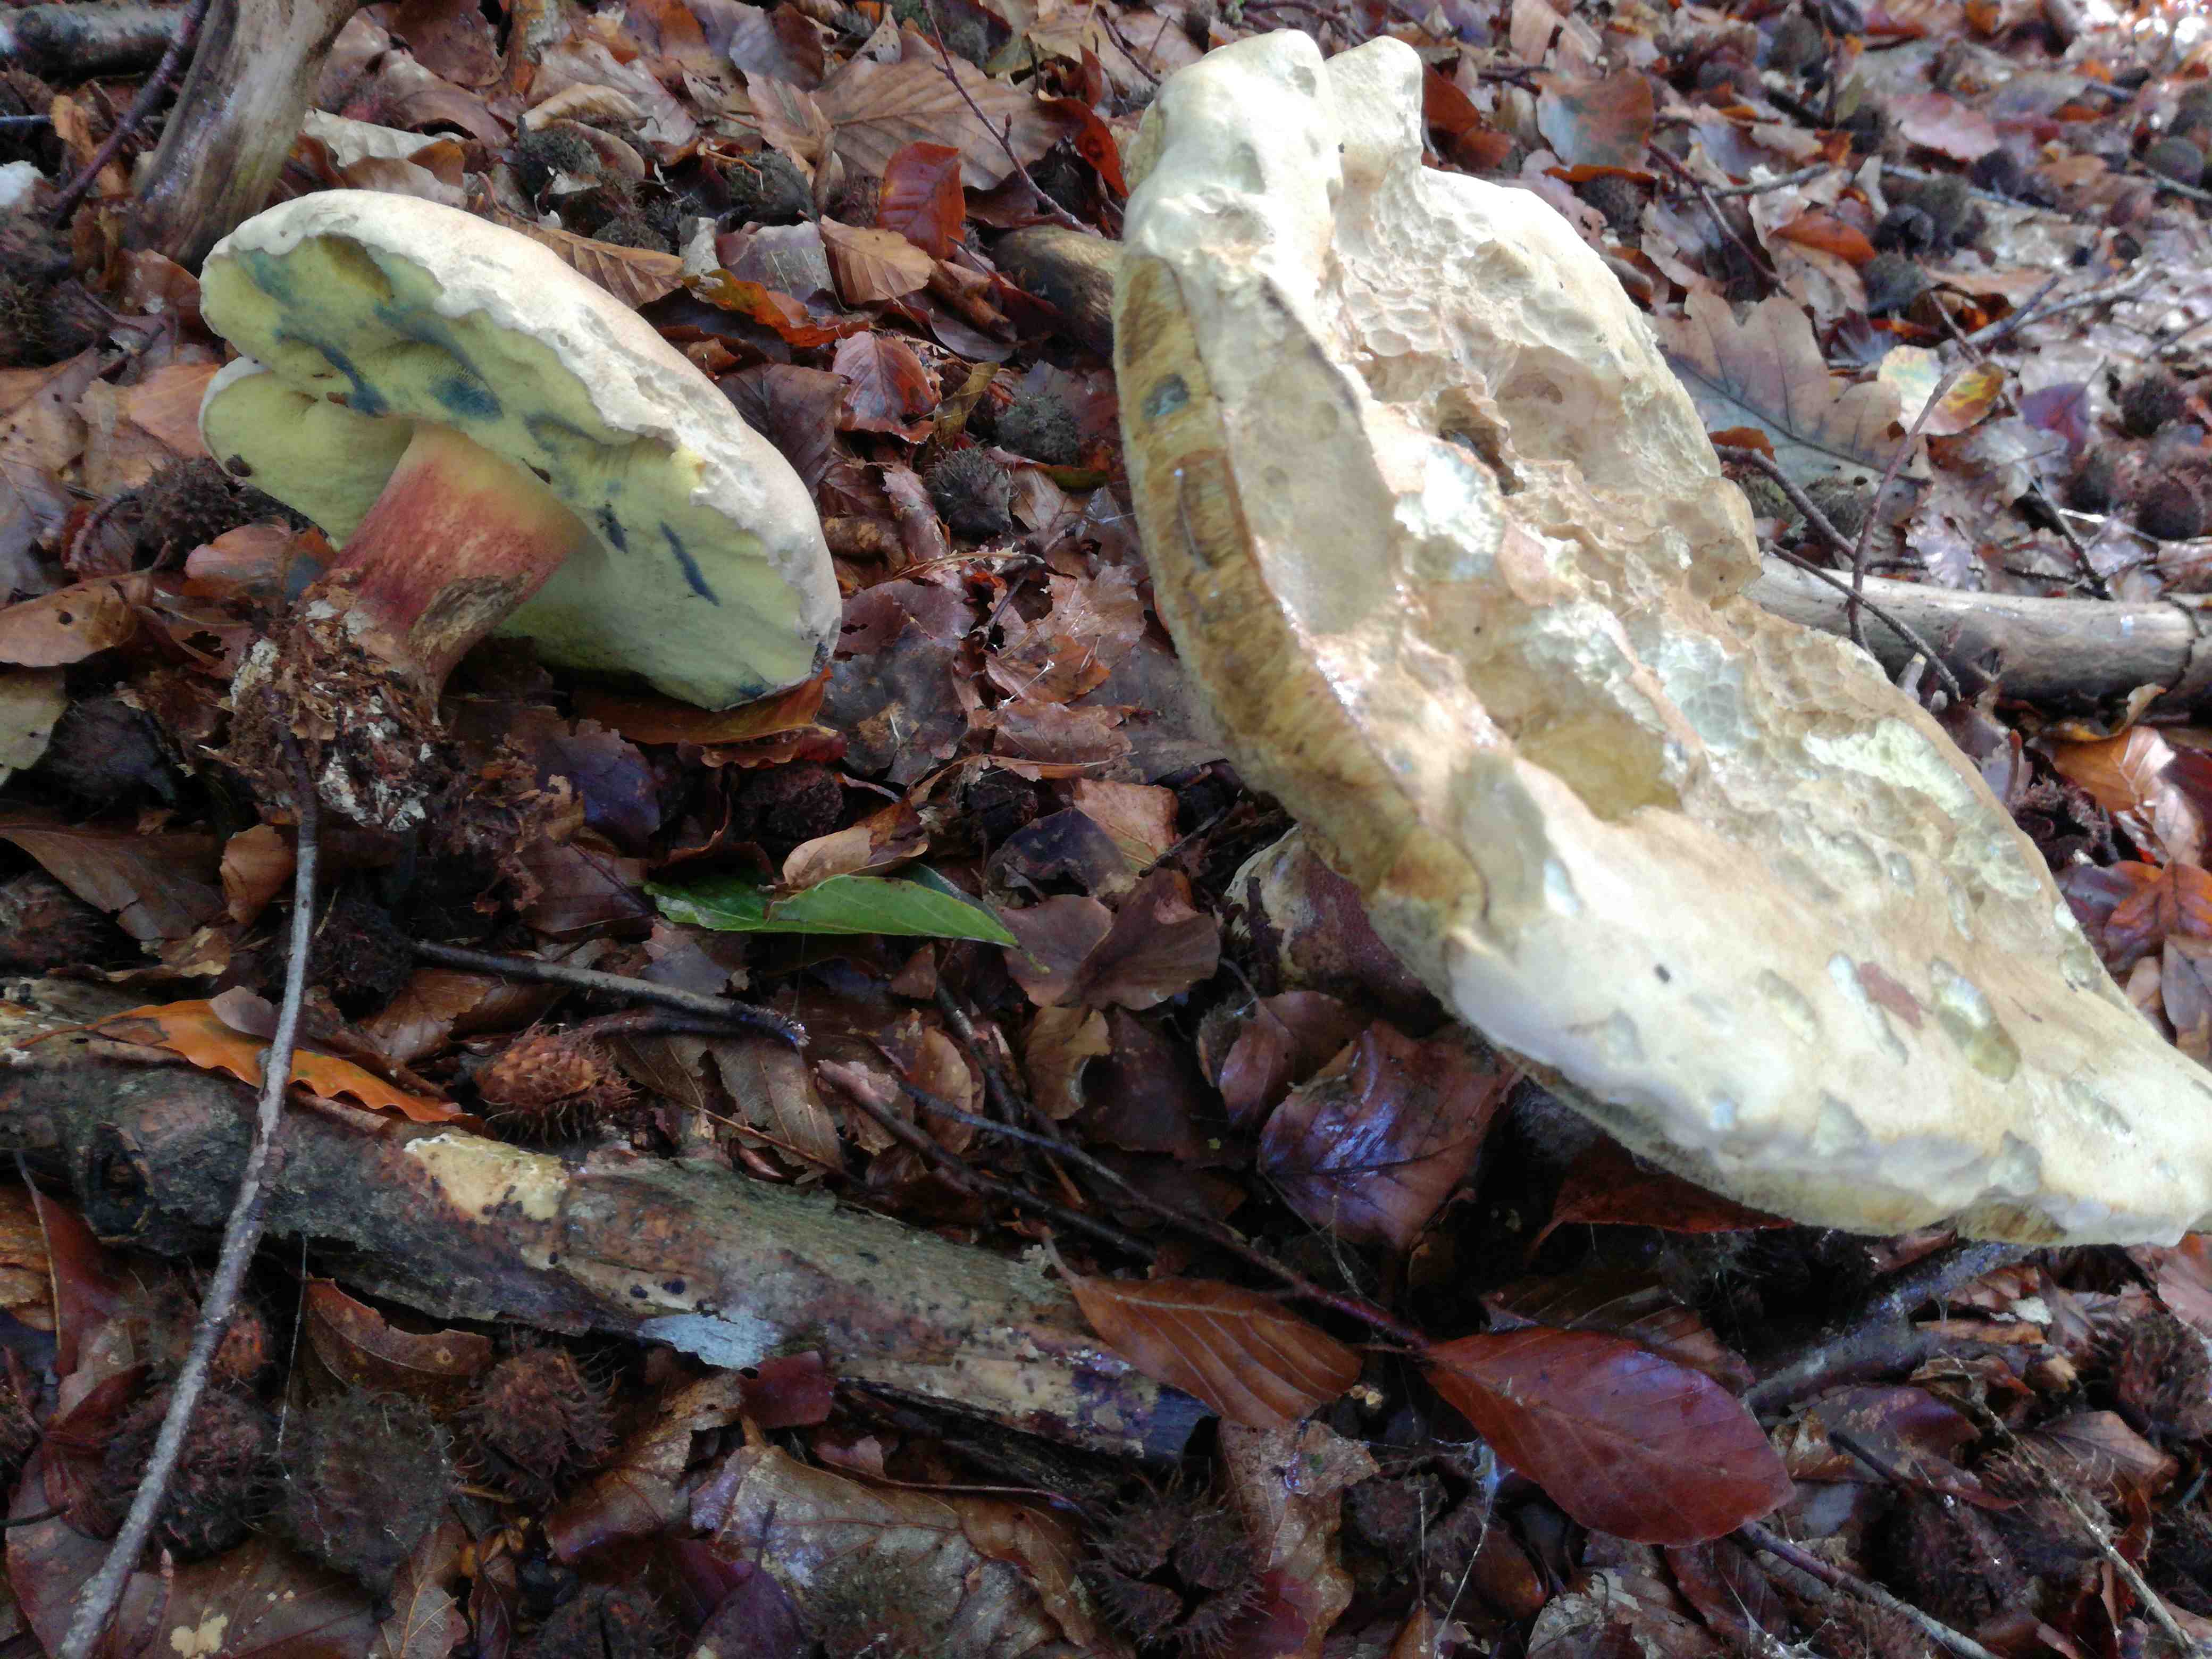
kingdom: Fungi
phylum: Basidiomycota
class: Agaricomycetes
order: Boletales
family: Boletaceae
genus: Caloboletus
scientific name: Caloboletus calopus
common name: skønfodet rørhat
